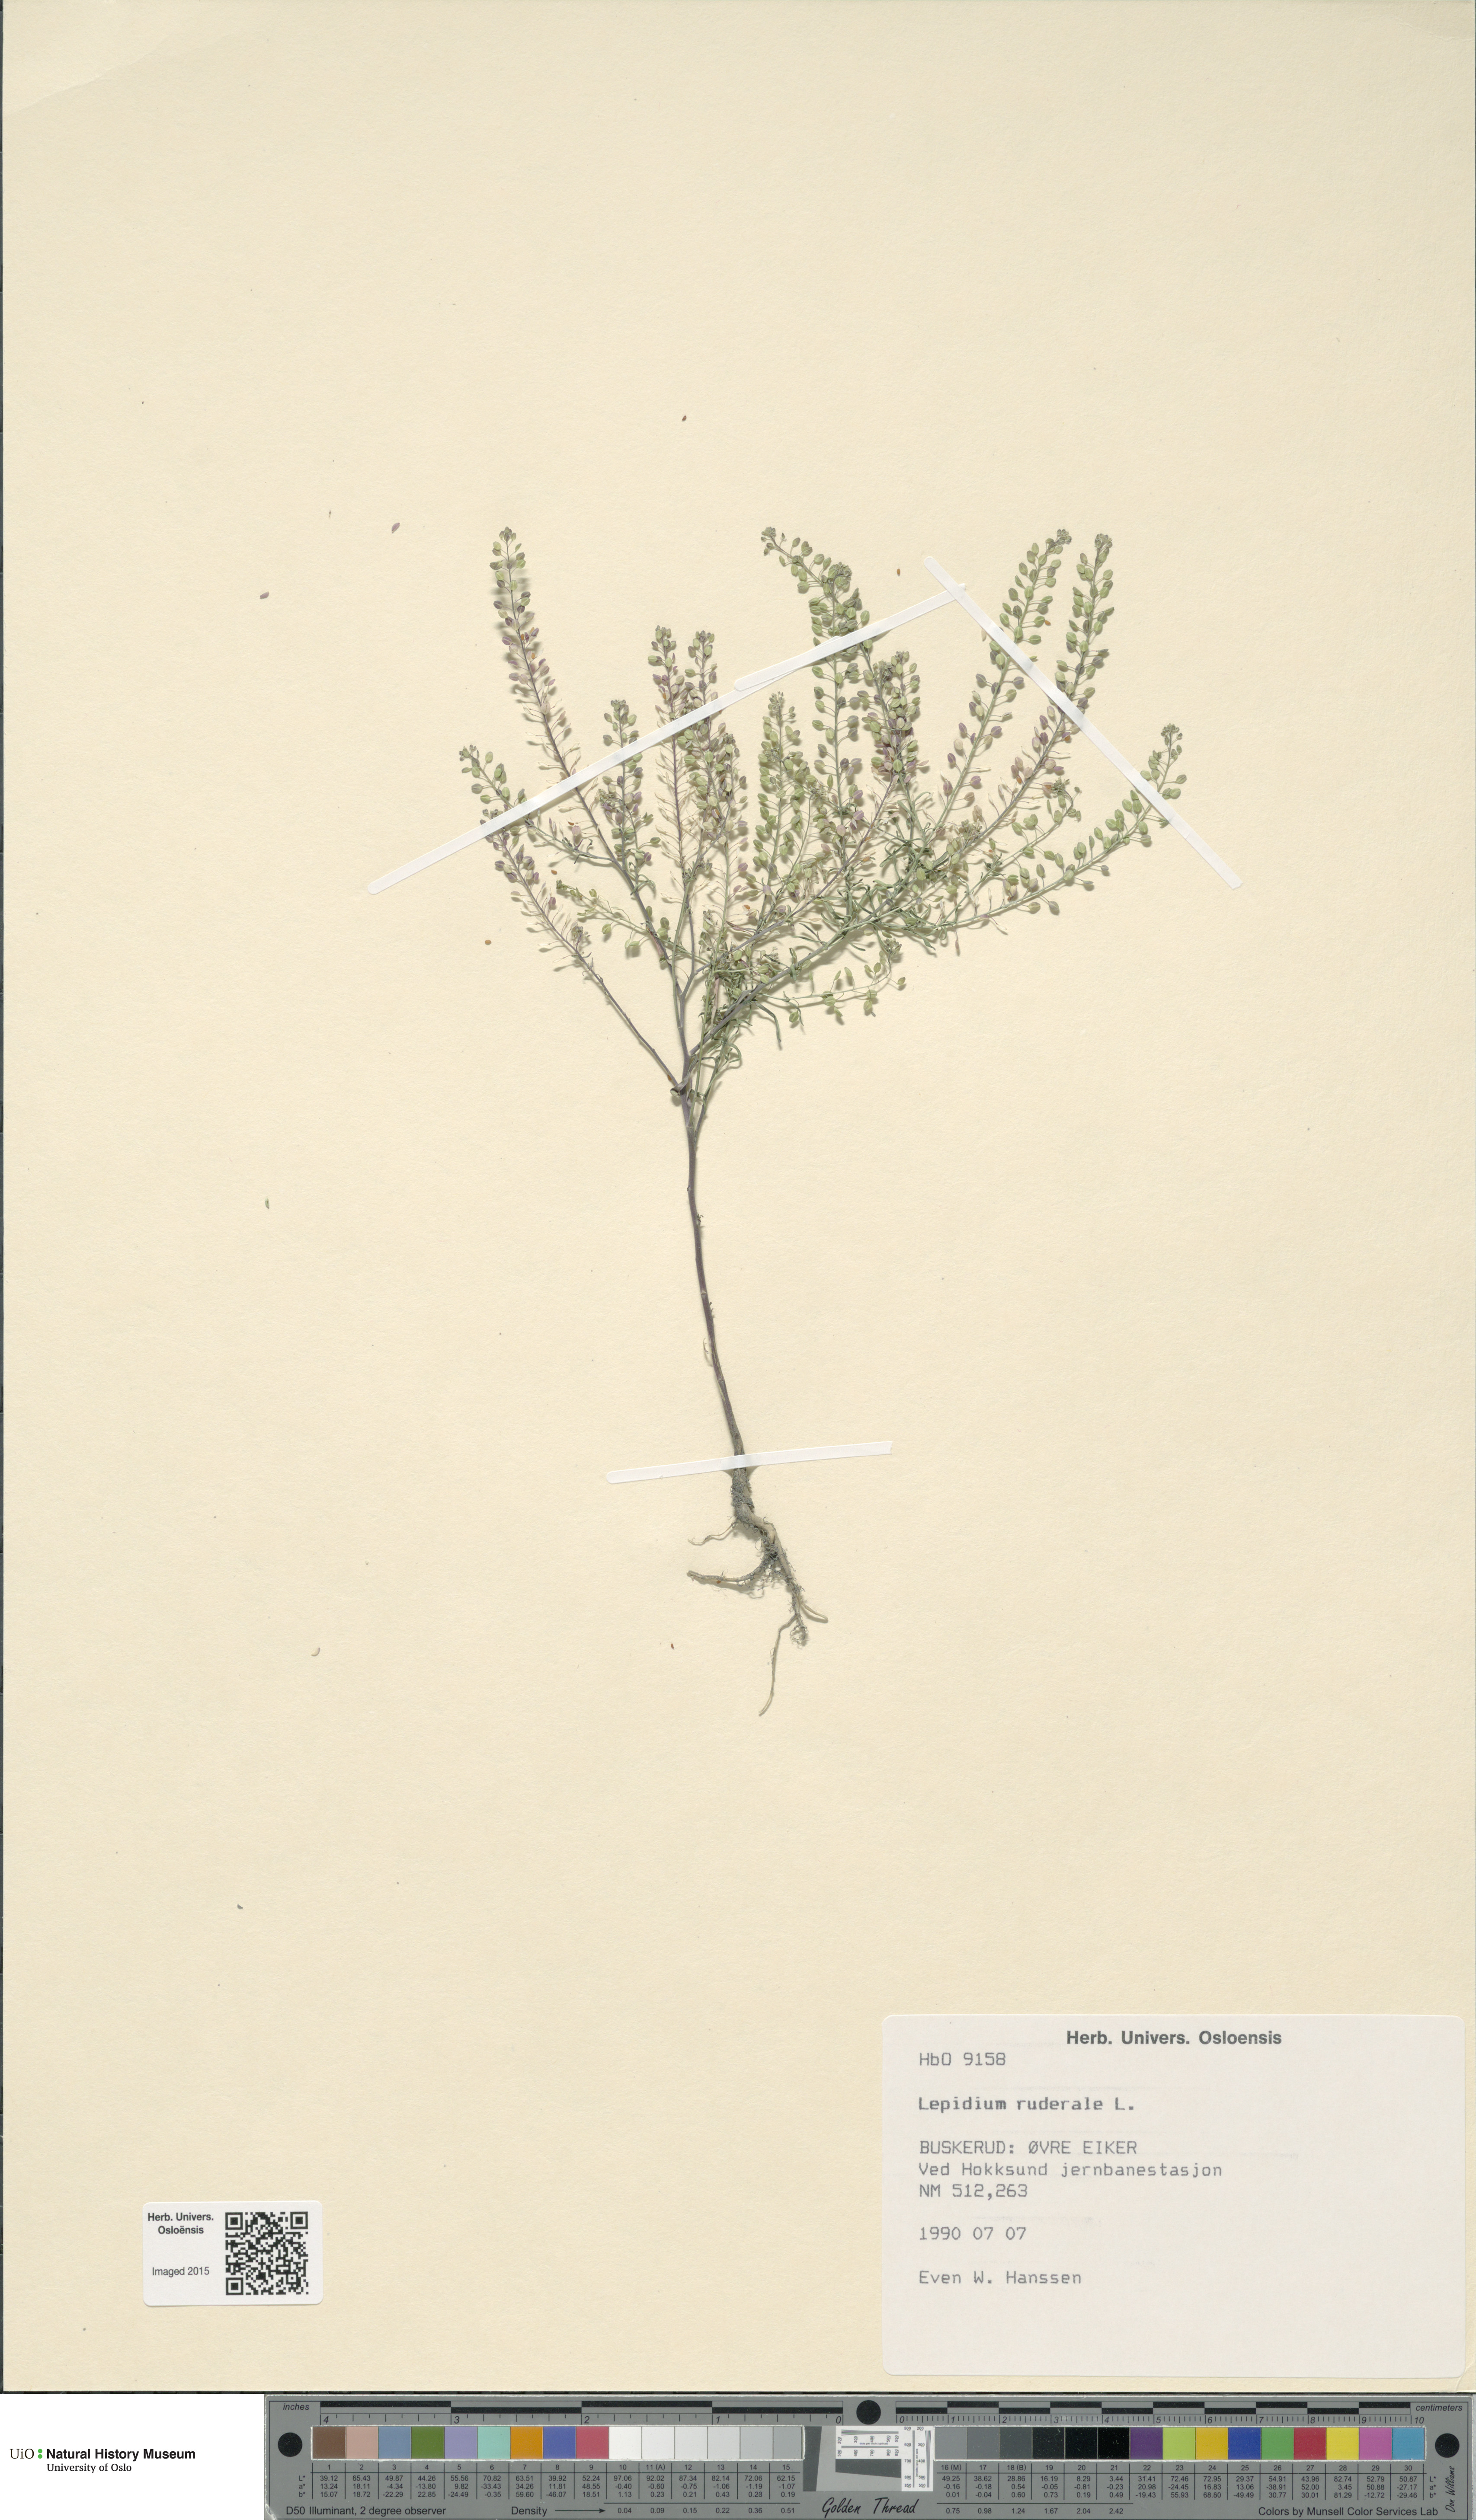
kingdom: Plantae
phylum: Tracheophyta
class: Magnoliopsida
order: Brassicales
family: Brassicaceae
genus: Lepidium
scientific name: Lepidium ruderale
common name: Narrow-leaved pepperwort
